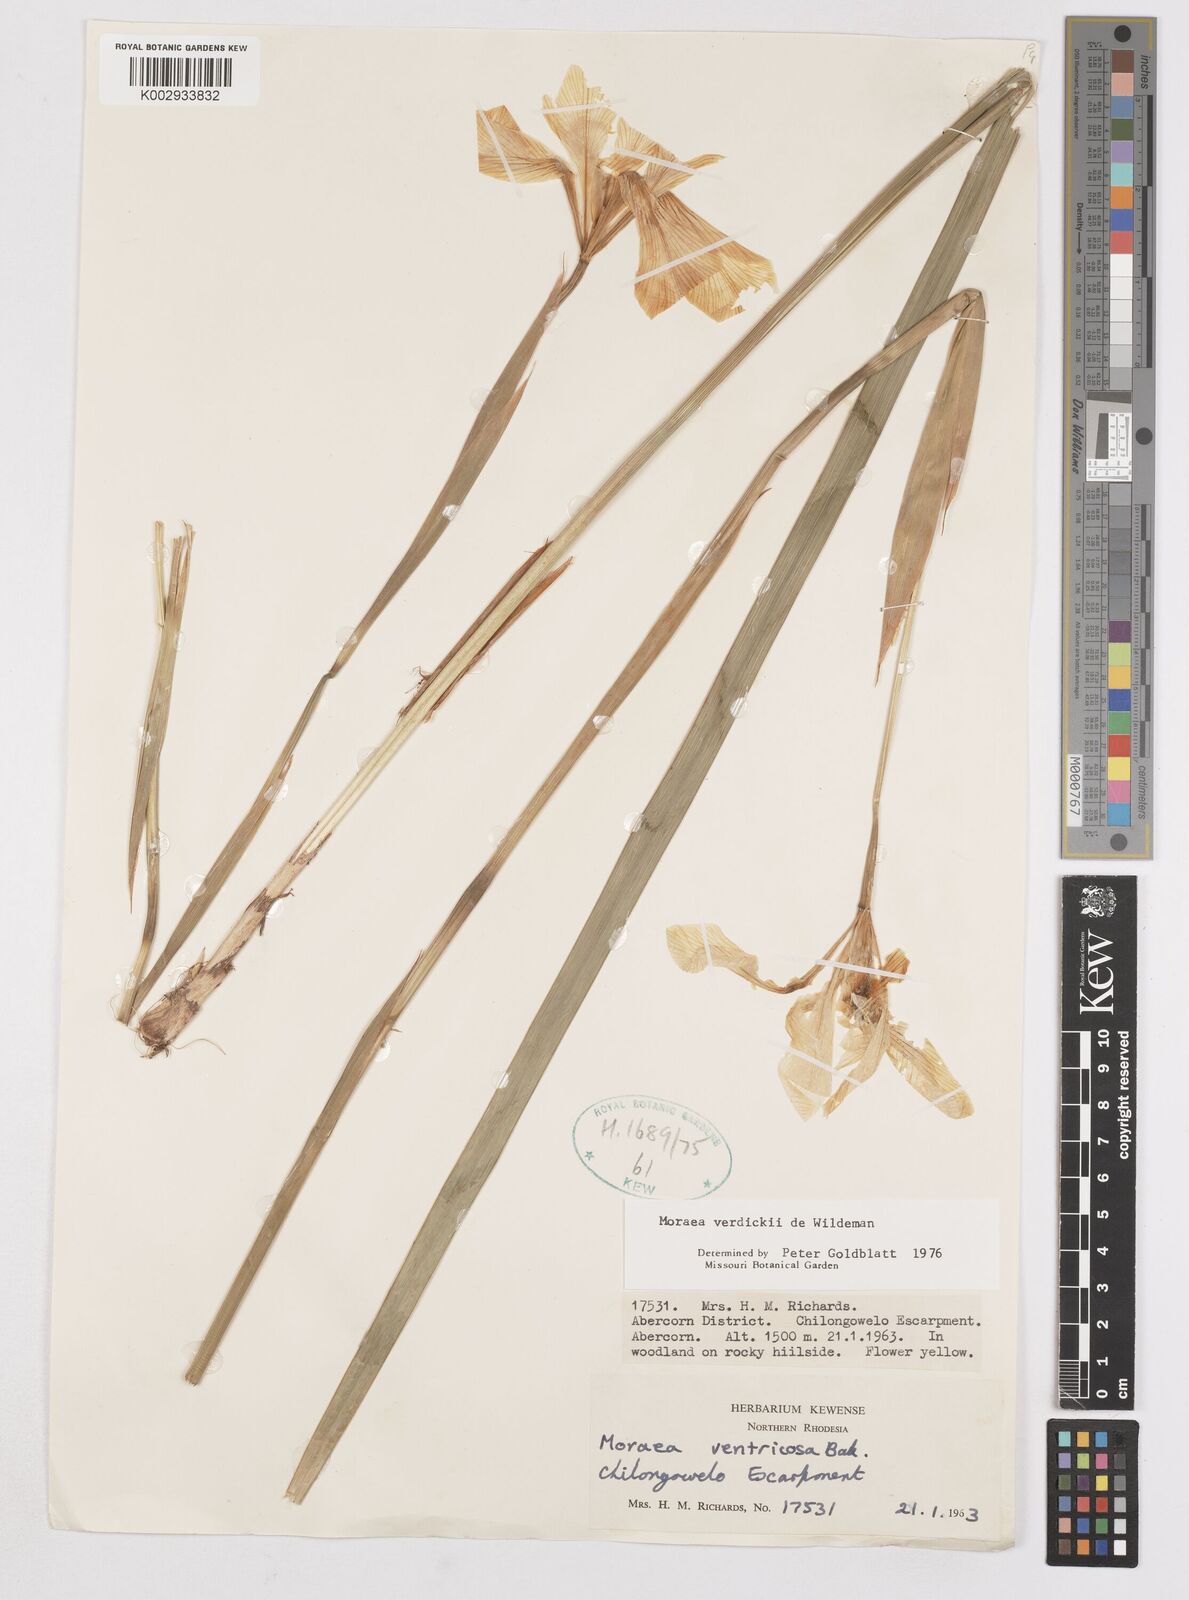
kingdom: Plantae
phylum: Tracheophyta
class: Liliopsida
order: Asparagales
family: Iridaceae
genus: Moraea
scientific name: Moraea verdickii
